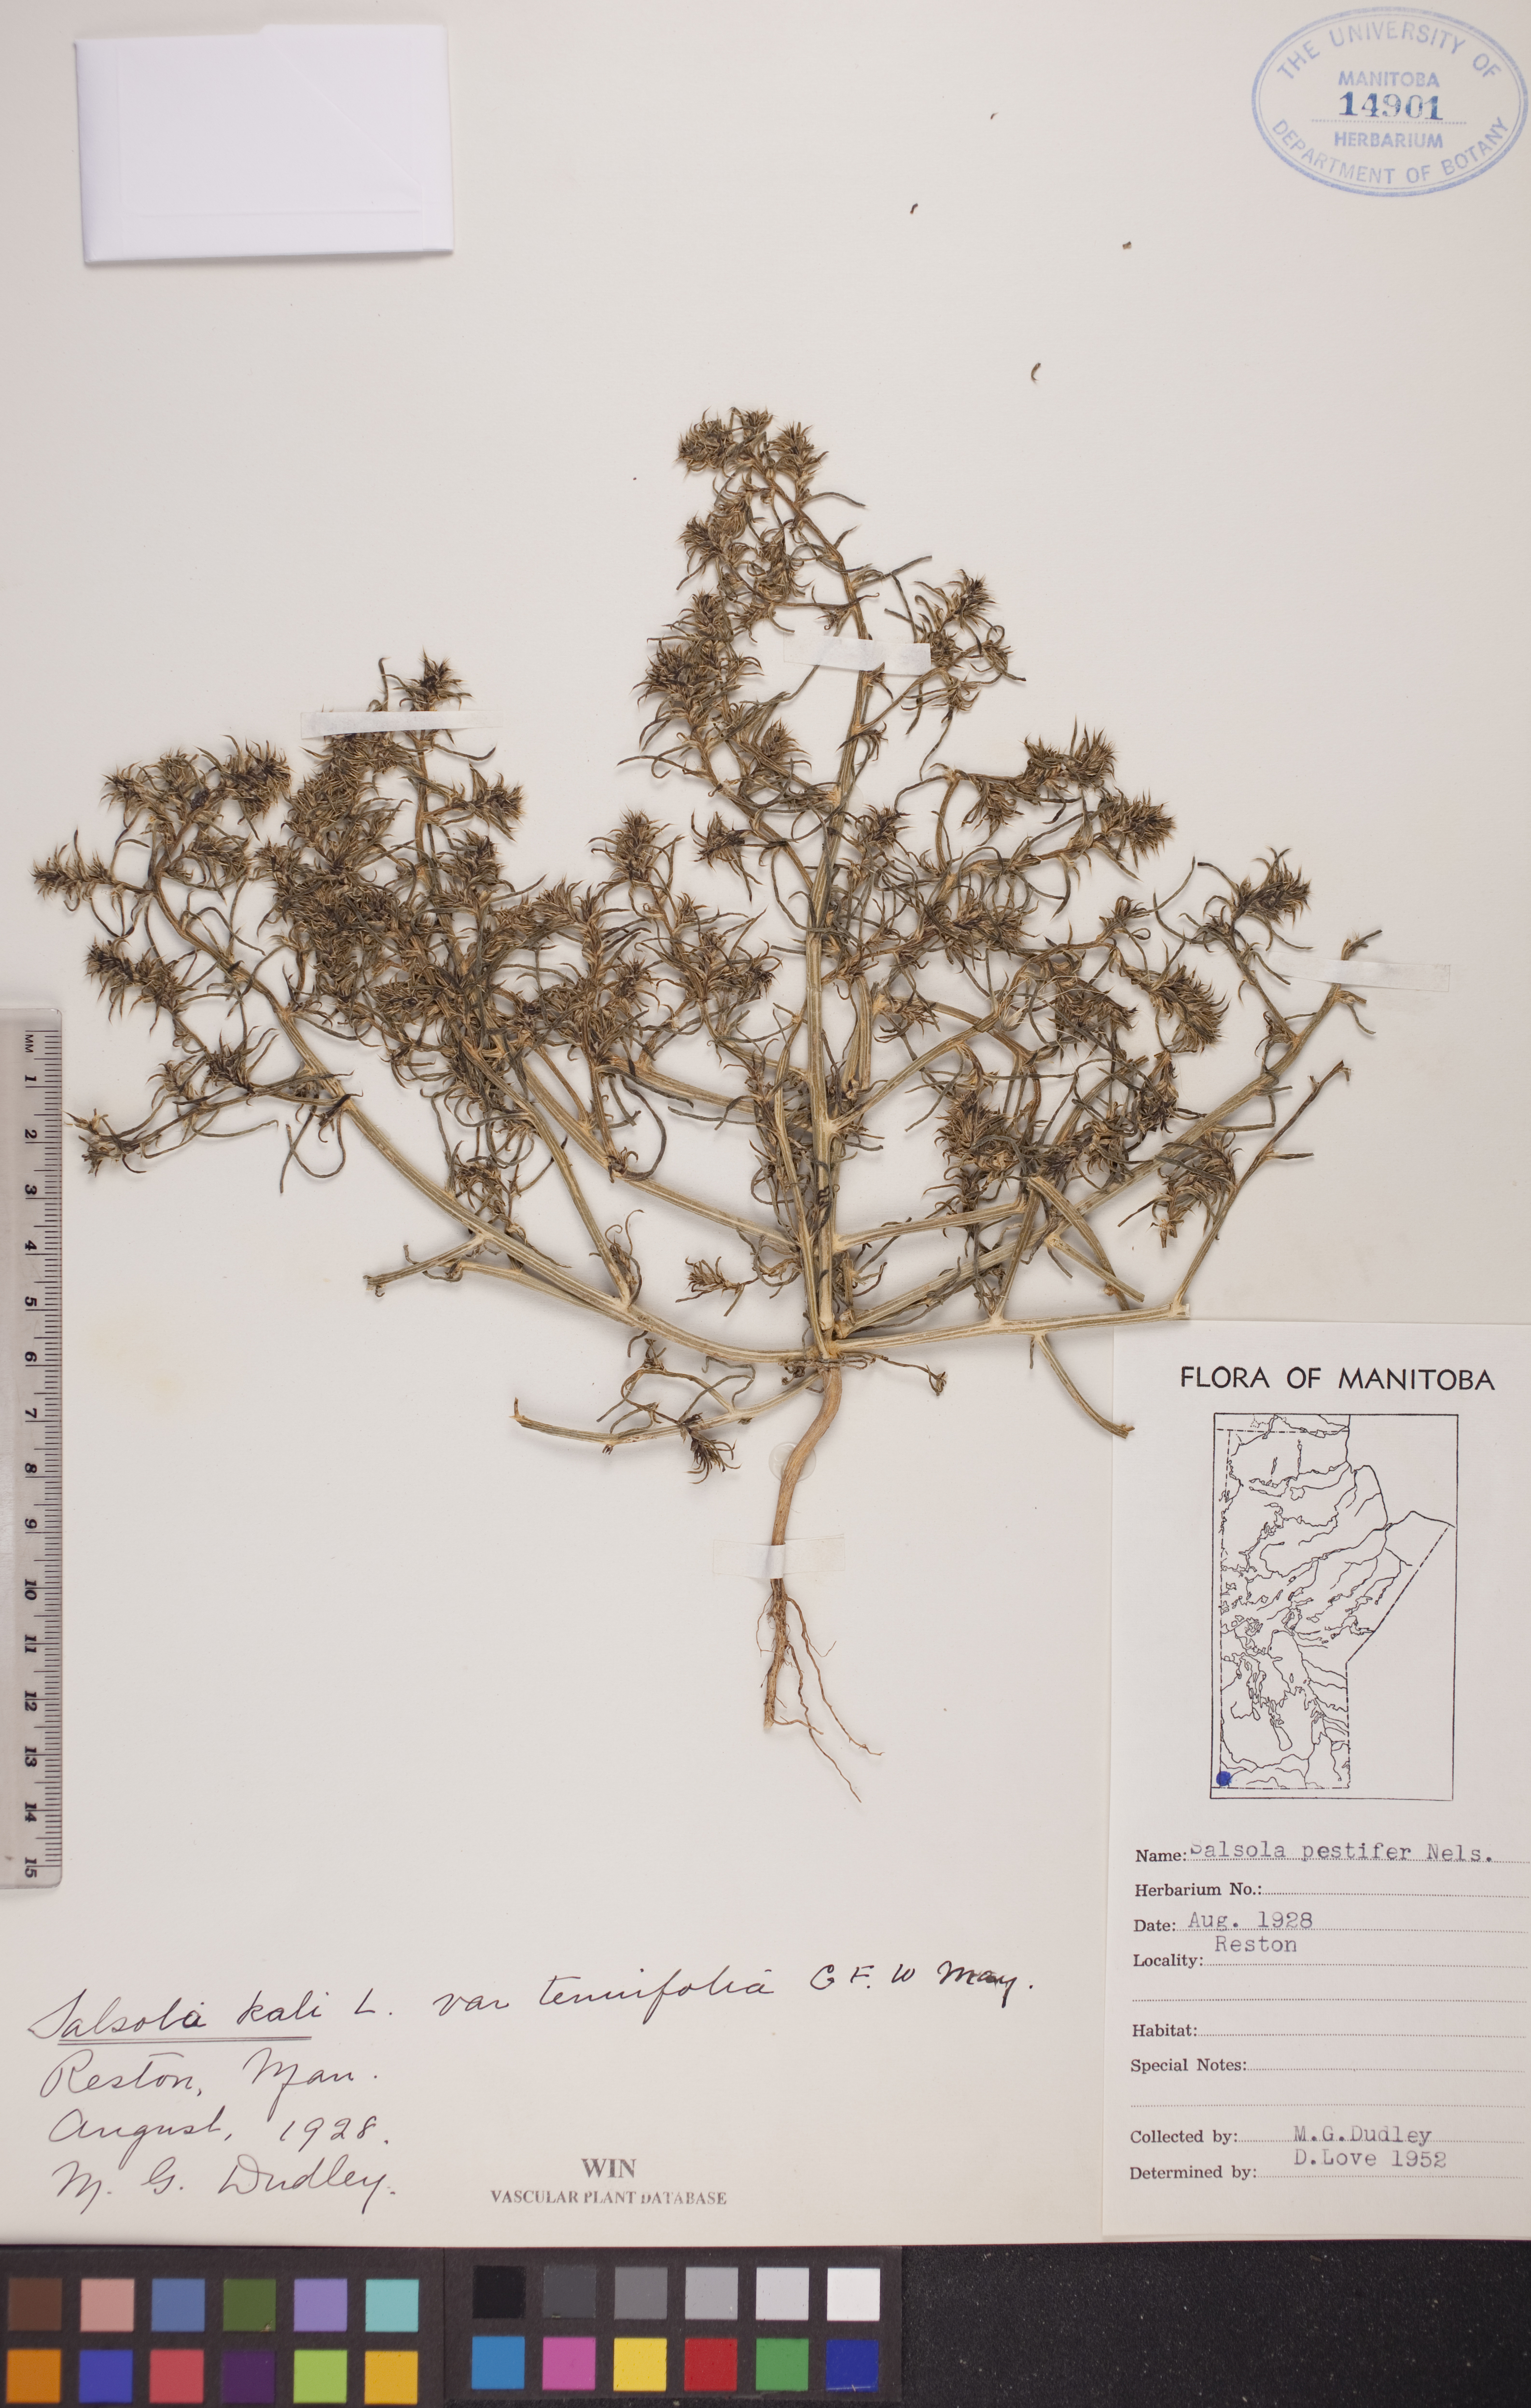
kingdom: Plantae
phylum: Tracheophyta
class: Magnoliopsida
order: Caryophyllales
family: Amaranthaceae
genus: Salsola
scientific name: Salsola tragus
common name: Prickly russian thistle
